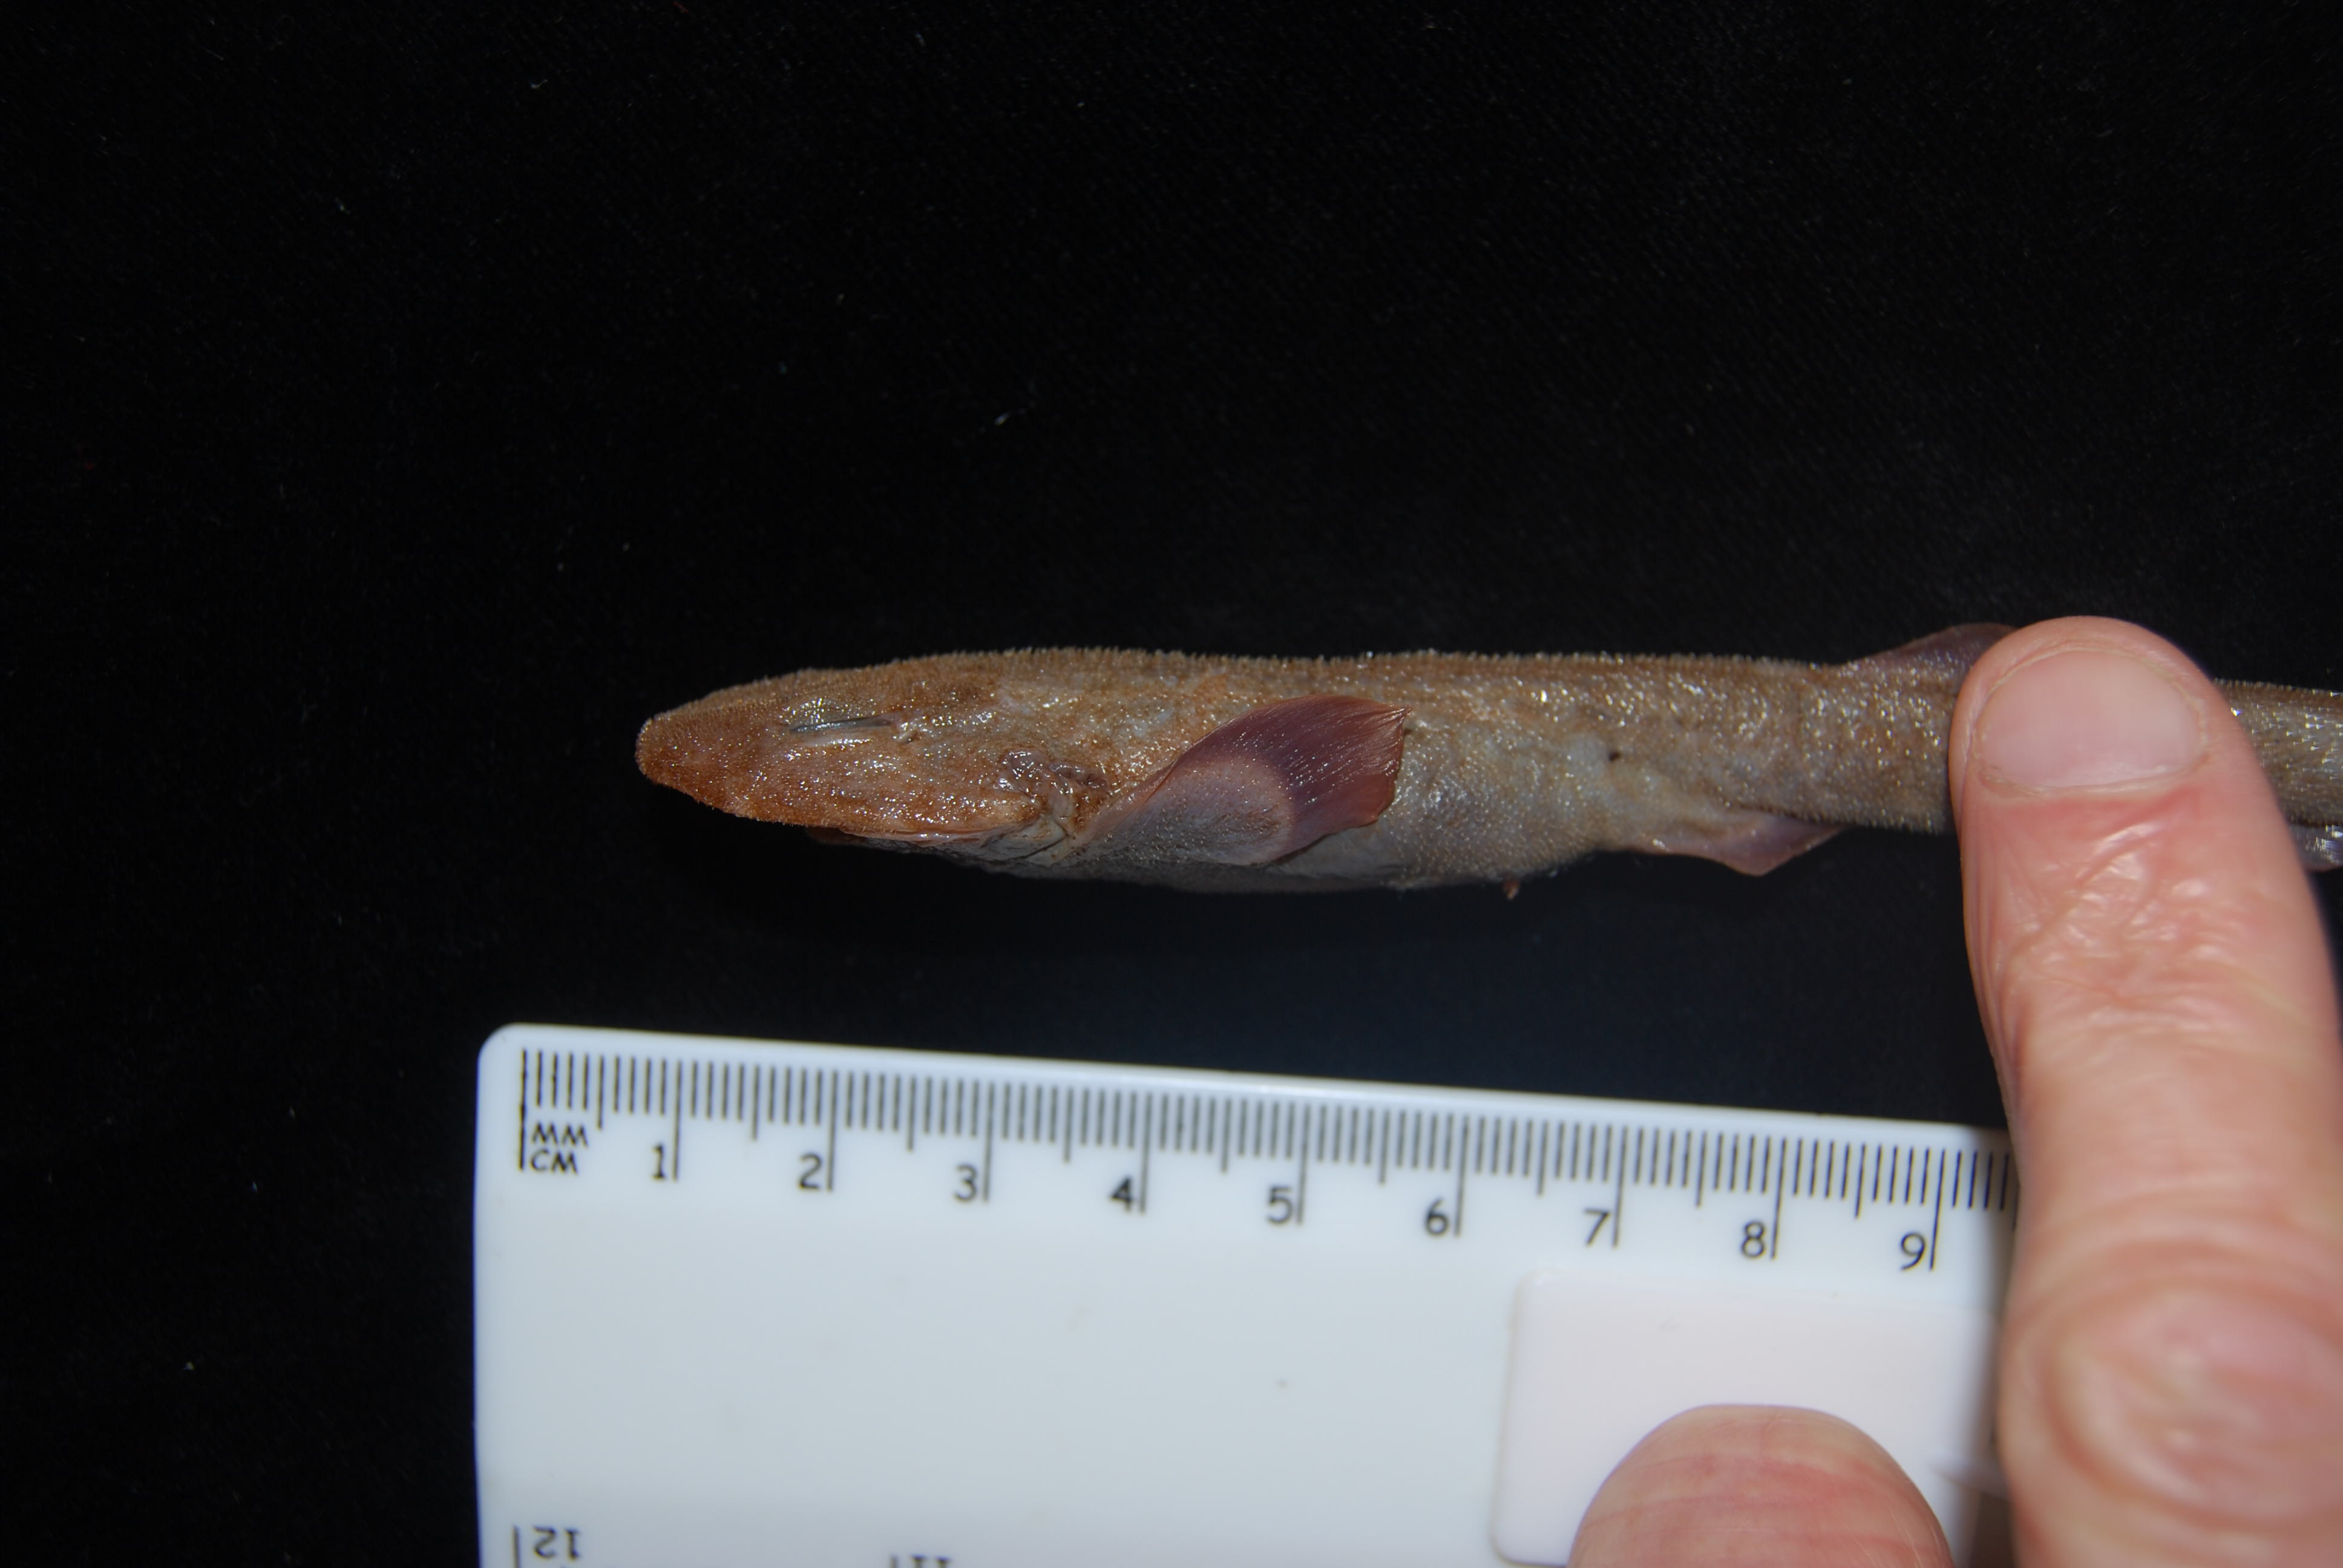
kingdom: Animalia
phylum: Chordata
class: Elasmobranchii
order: Carcharhiniformes
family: Scyliorhinidae
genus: Holohalaelurus
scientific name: Holohalaelurus favus
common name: African spotted catshark
